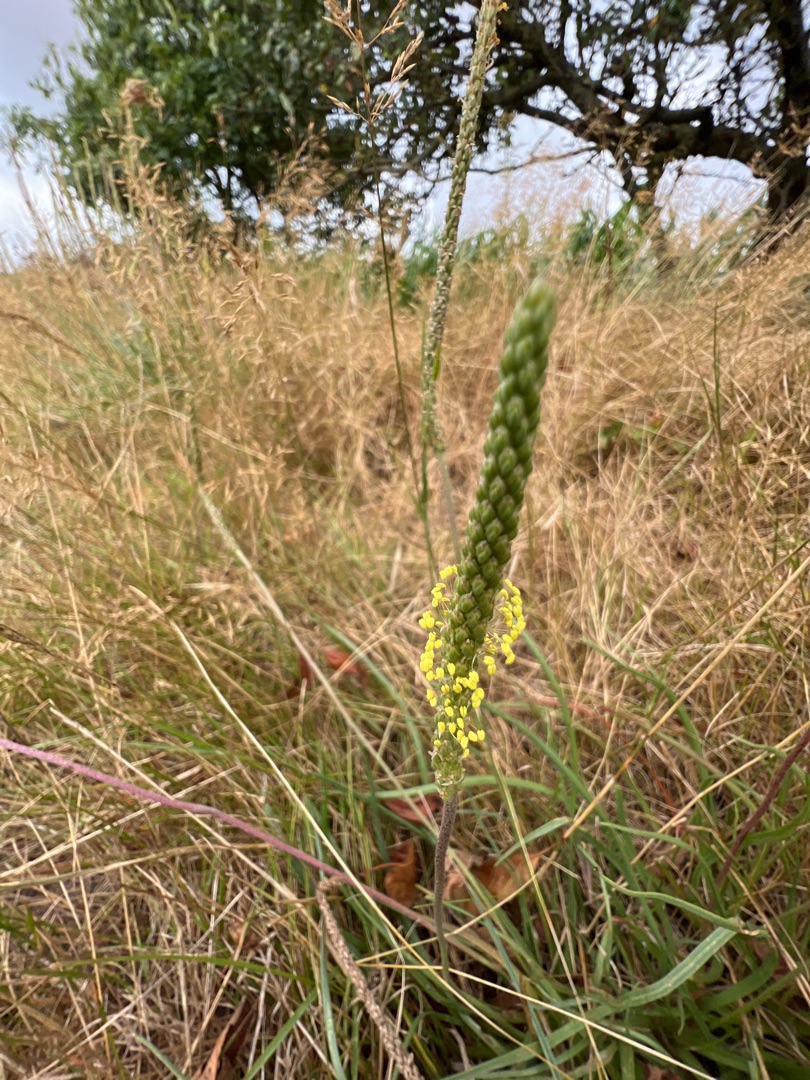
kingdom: Plantae
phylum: Tracheophyta
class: Magnoliopsida
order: Lamiales
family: Plantaginaceae
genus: Plantago
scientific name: Plantago maritima
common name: Strand-vejbred
